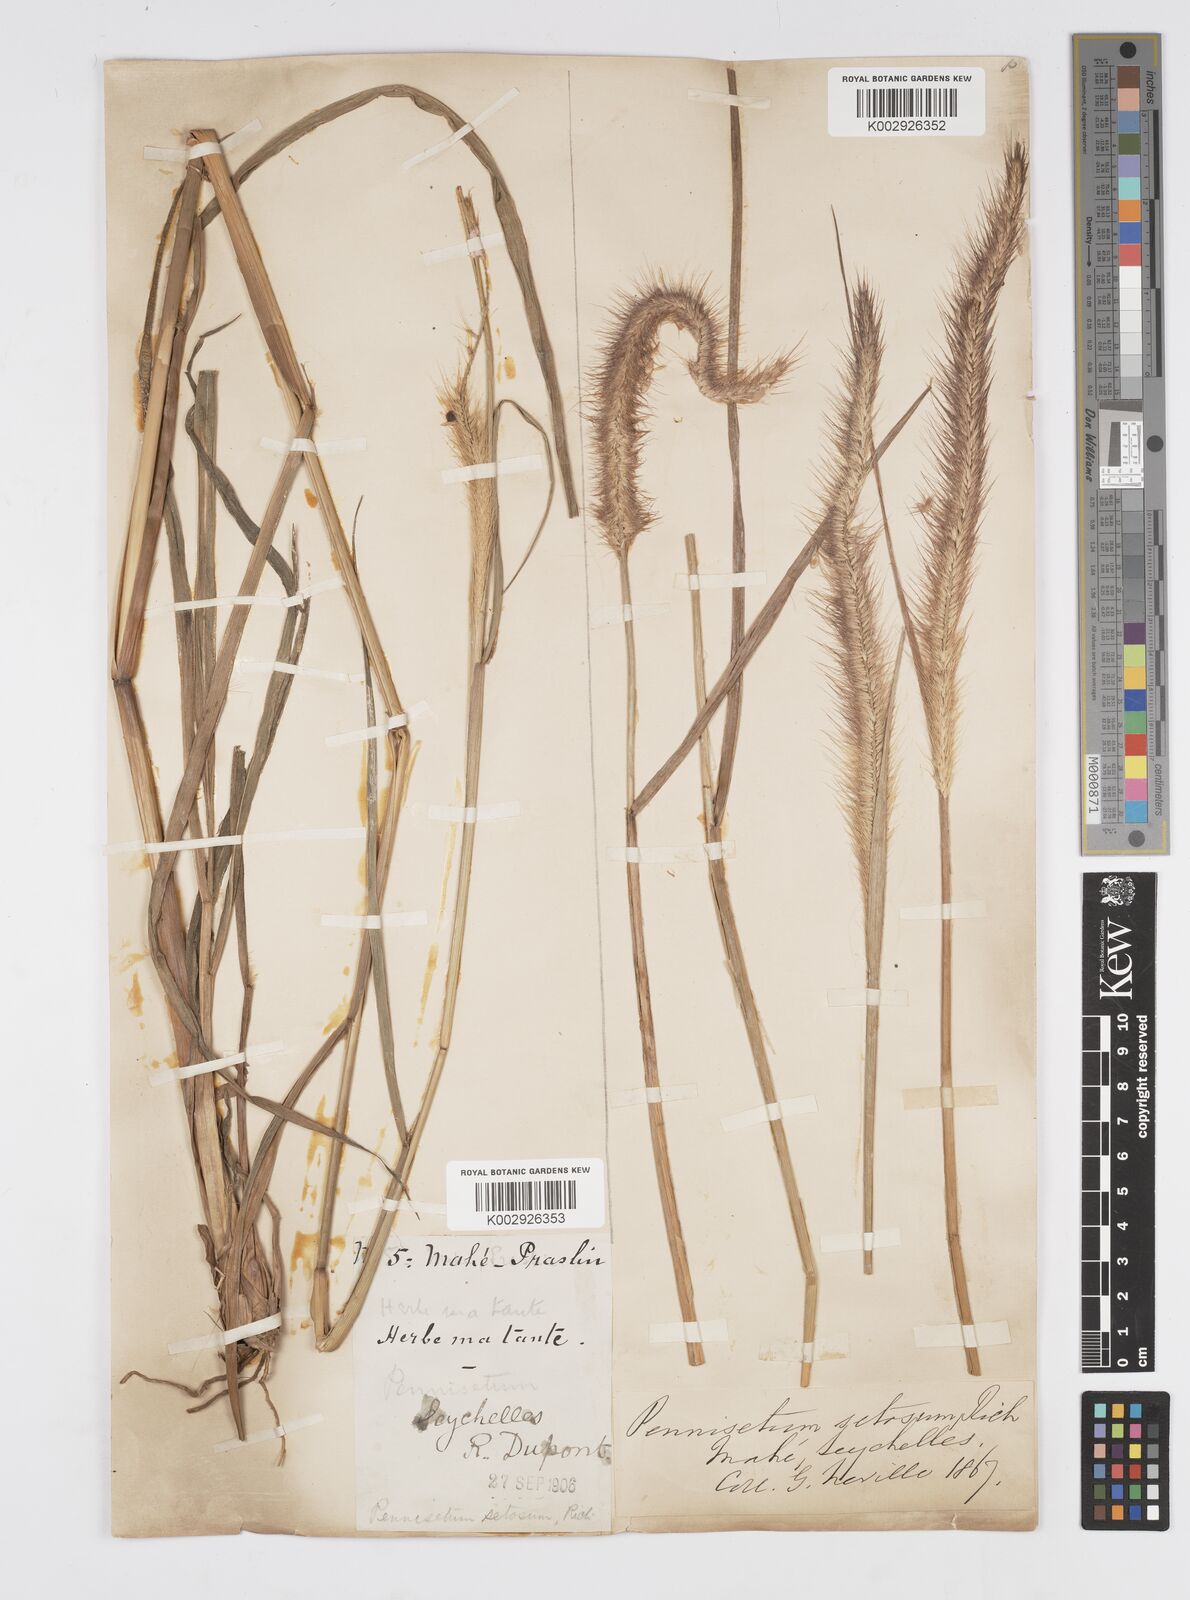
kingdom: Plantae
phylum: Tracheophyta
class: Liliopsida
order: Poales
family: Poaceae
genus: Setaria
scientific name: Setaria parviflora
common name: Knotroot bristle-grass
